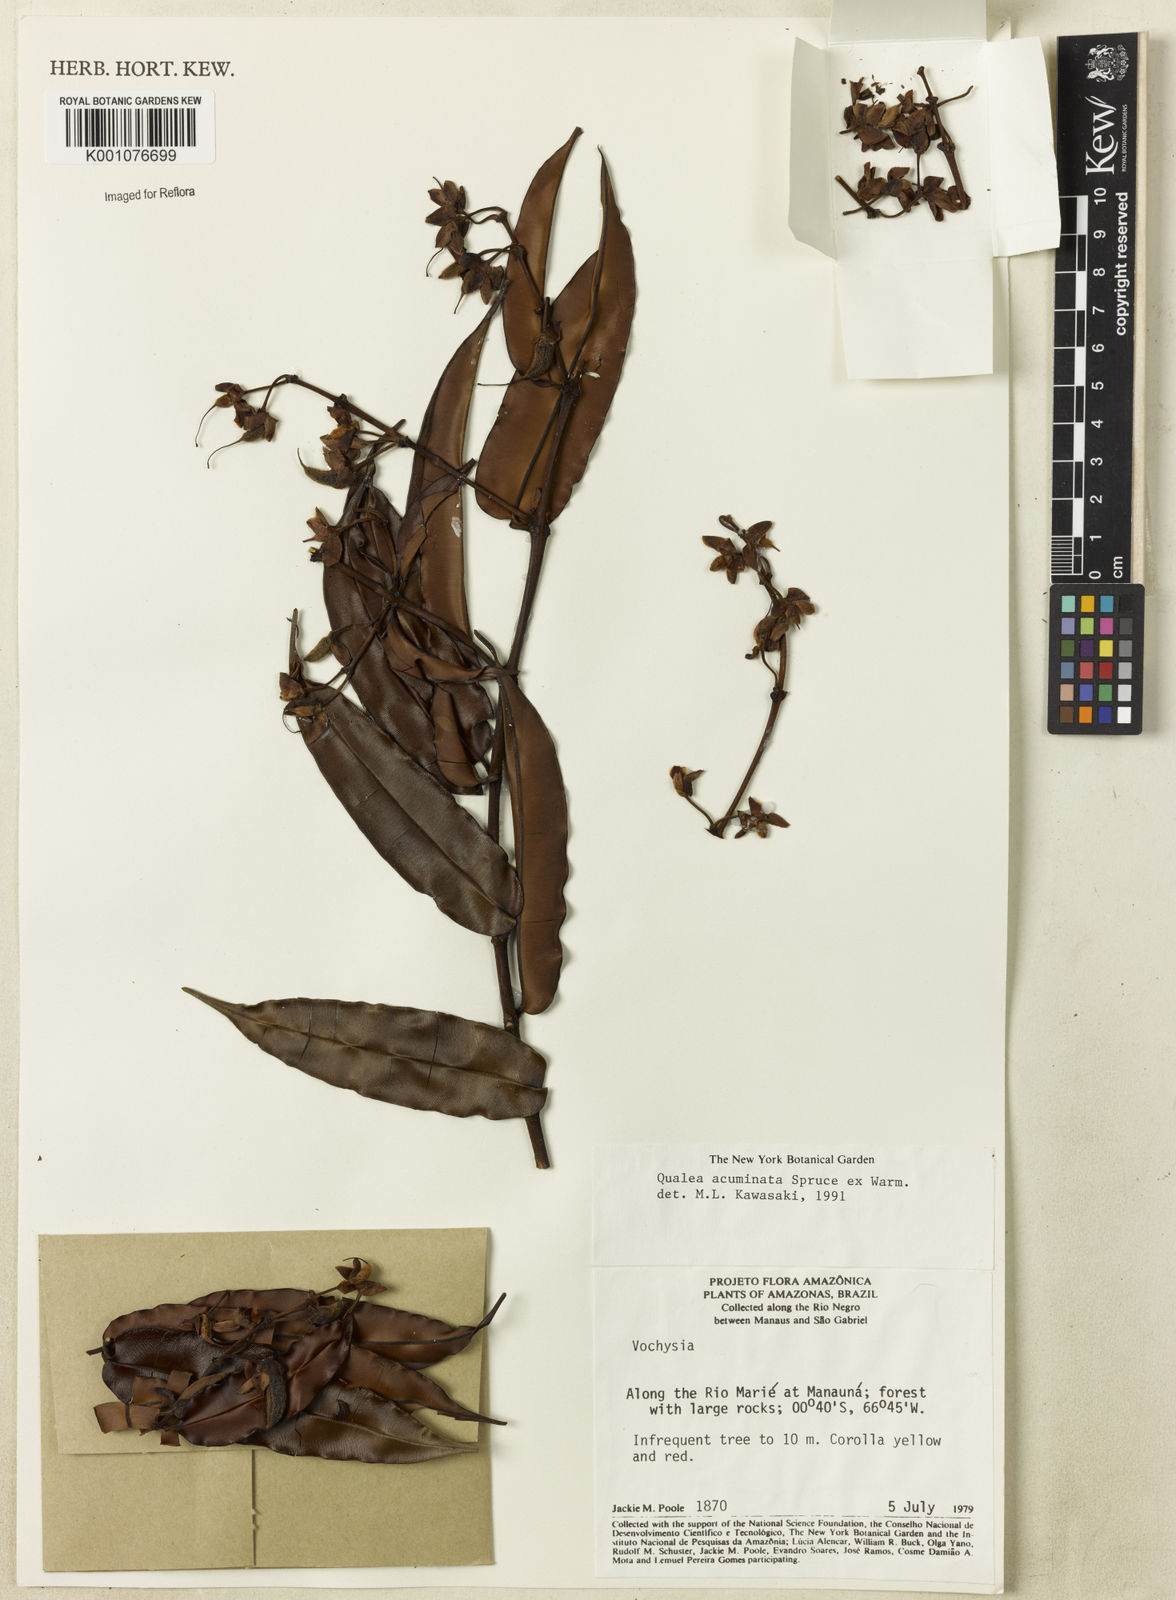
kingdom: Plantae
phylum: Tracheophyta
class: Magnoliopsida
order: Myrtales
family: Vochysiaceae
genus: Qualea
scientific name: Qualea acuminata
